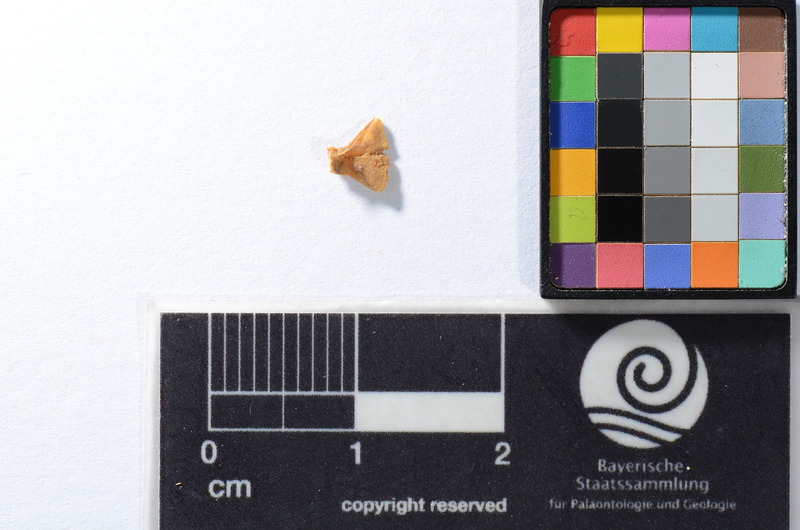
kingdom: Animalia
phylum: Chordata
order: Scorpaeniformes
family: Cottidae
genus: Cottus
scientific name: Cottus gobio
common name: Bullhead
